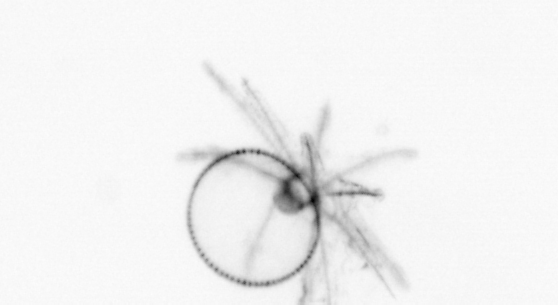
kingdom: Chromista
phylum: Myzozoa
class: Dinophyceae
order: Noctilucales
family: Noctilucaceae
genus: Noctiluca
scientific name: Noctiluca scintillans
